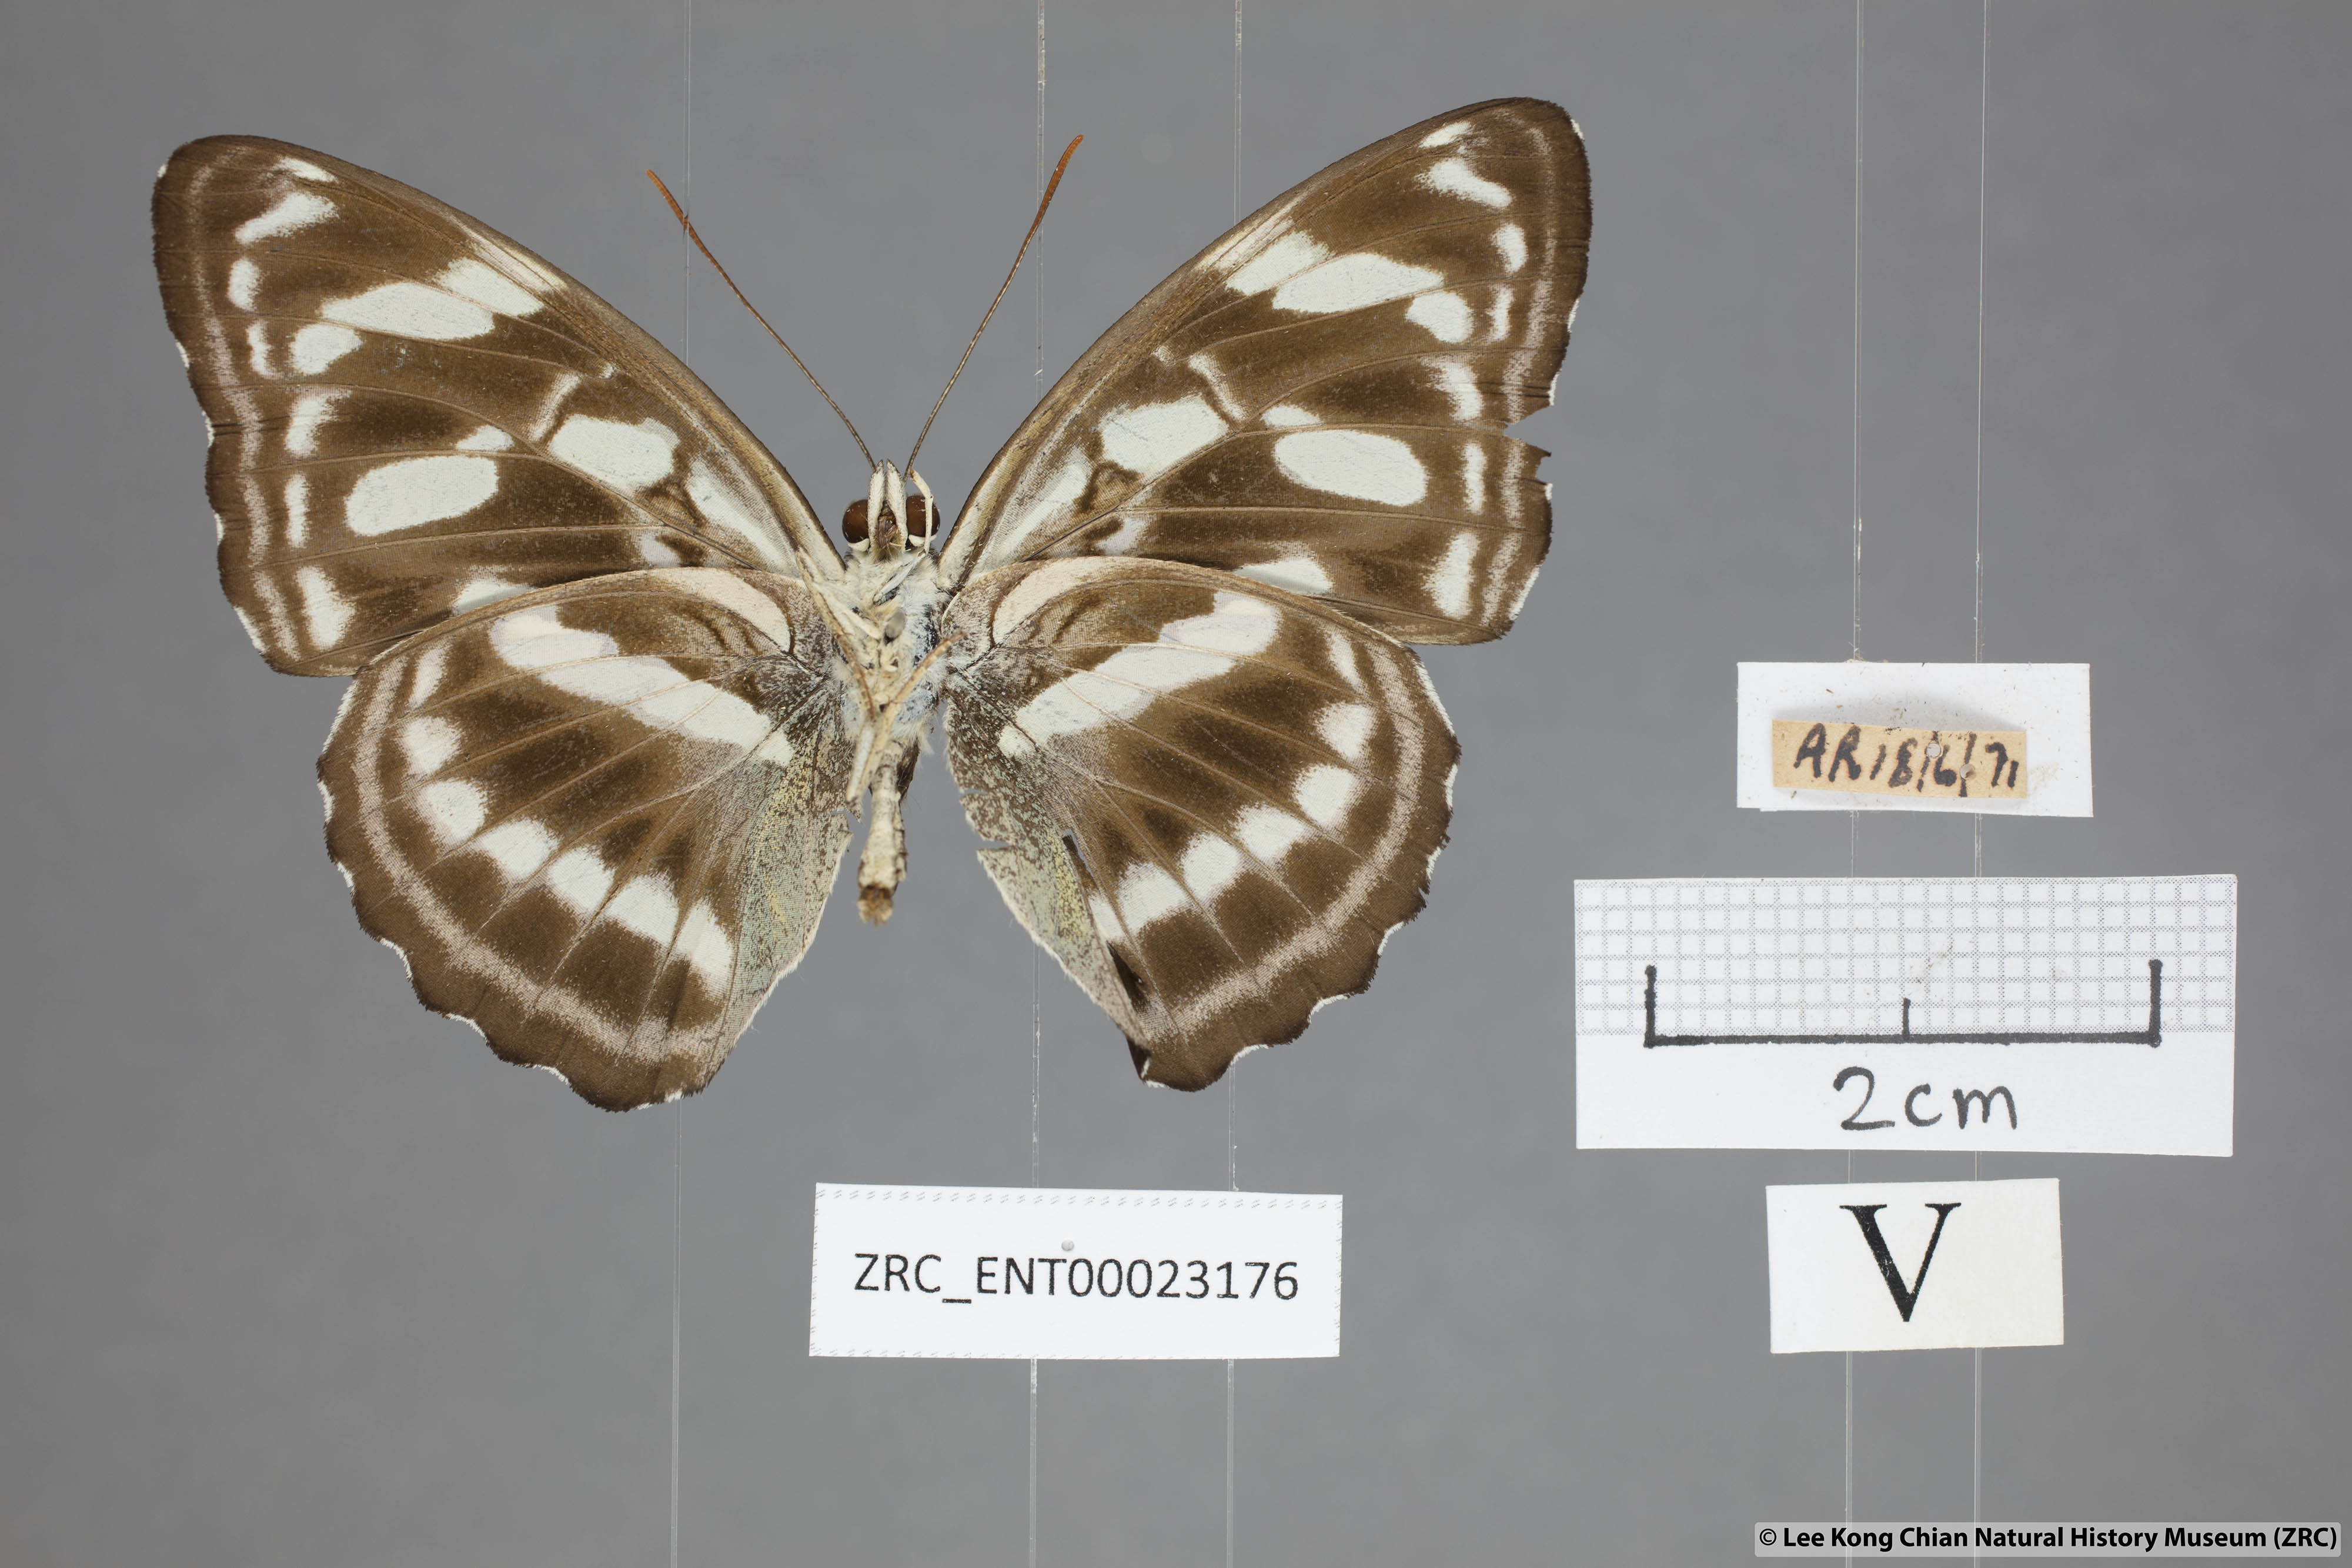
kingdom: Animalia
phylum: Arthropoda
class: Insecta
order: Lepidoptera
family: Nymphalidae
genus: Parathyma
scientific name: Parathyma abiasa
